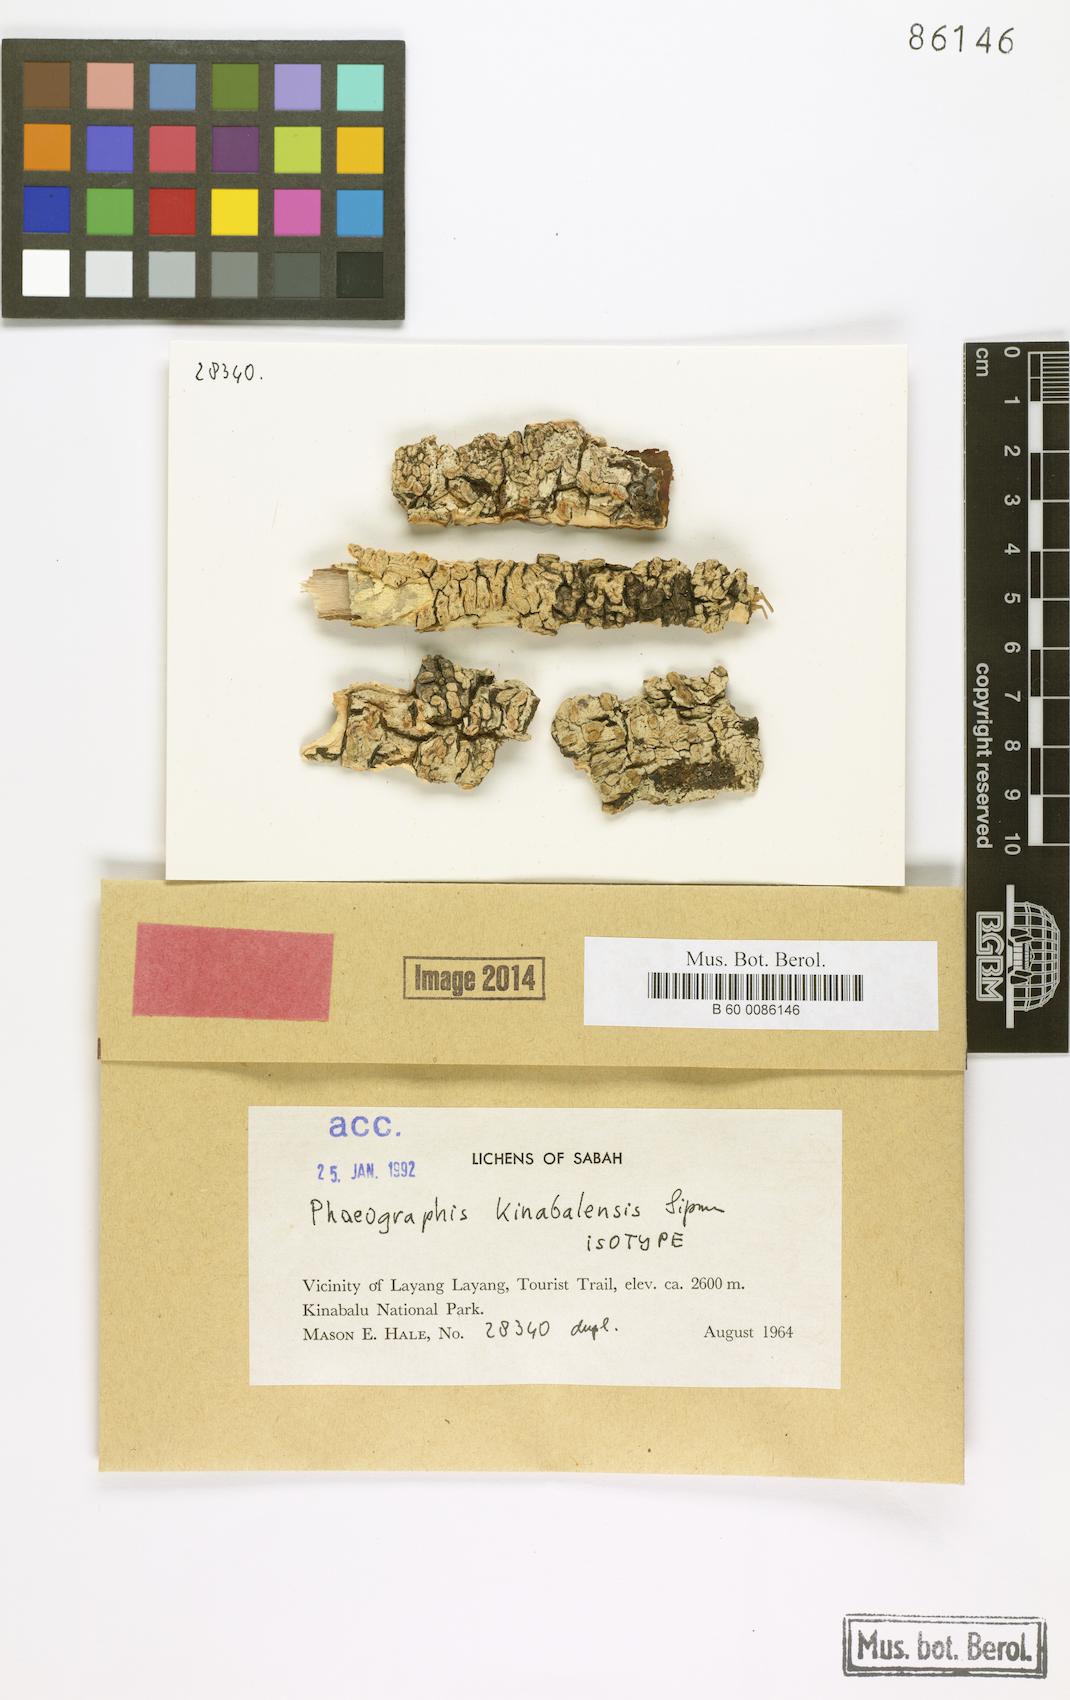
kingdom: Fungi
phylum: Ascomycota
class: Lecanoromycetes
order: Ostropales
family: Graphidaceae
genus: Phaeographis
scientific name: Phaeographis
